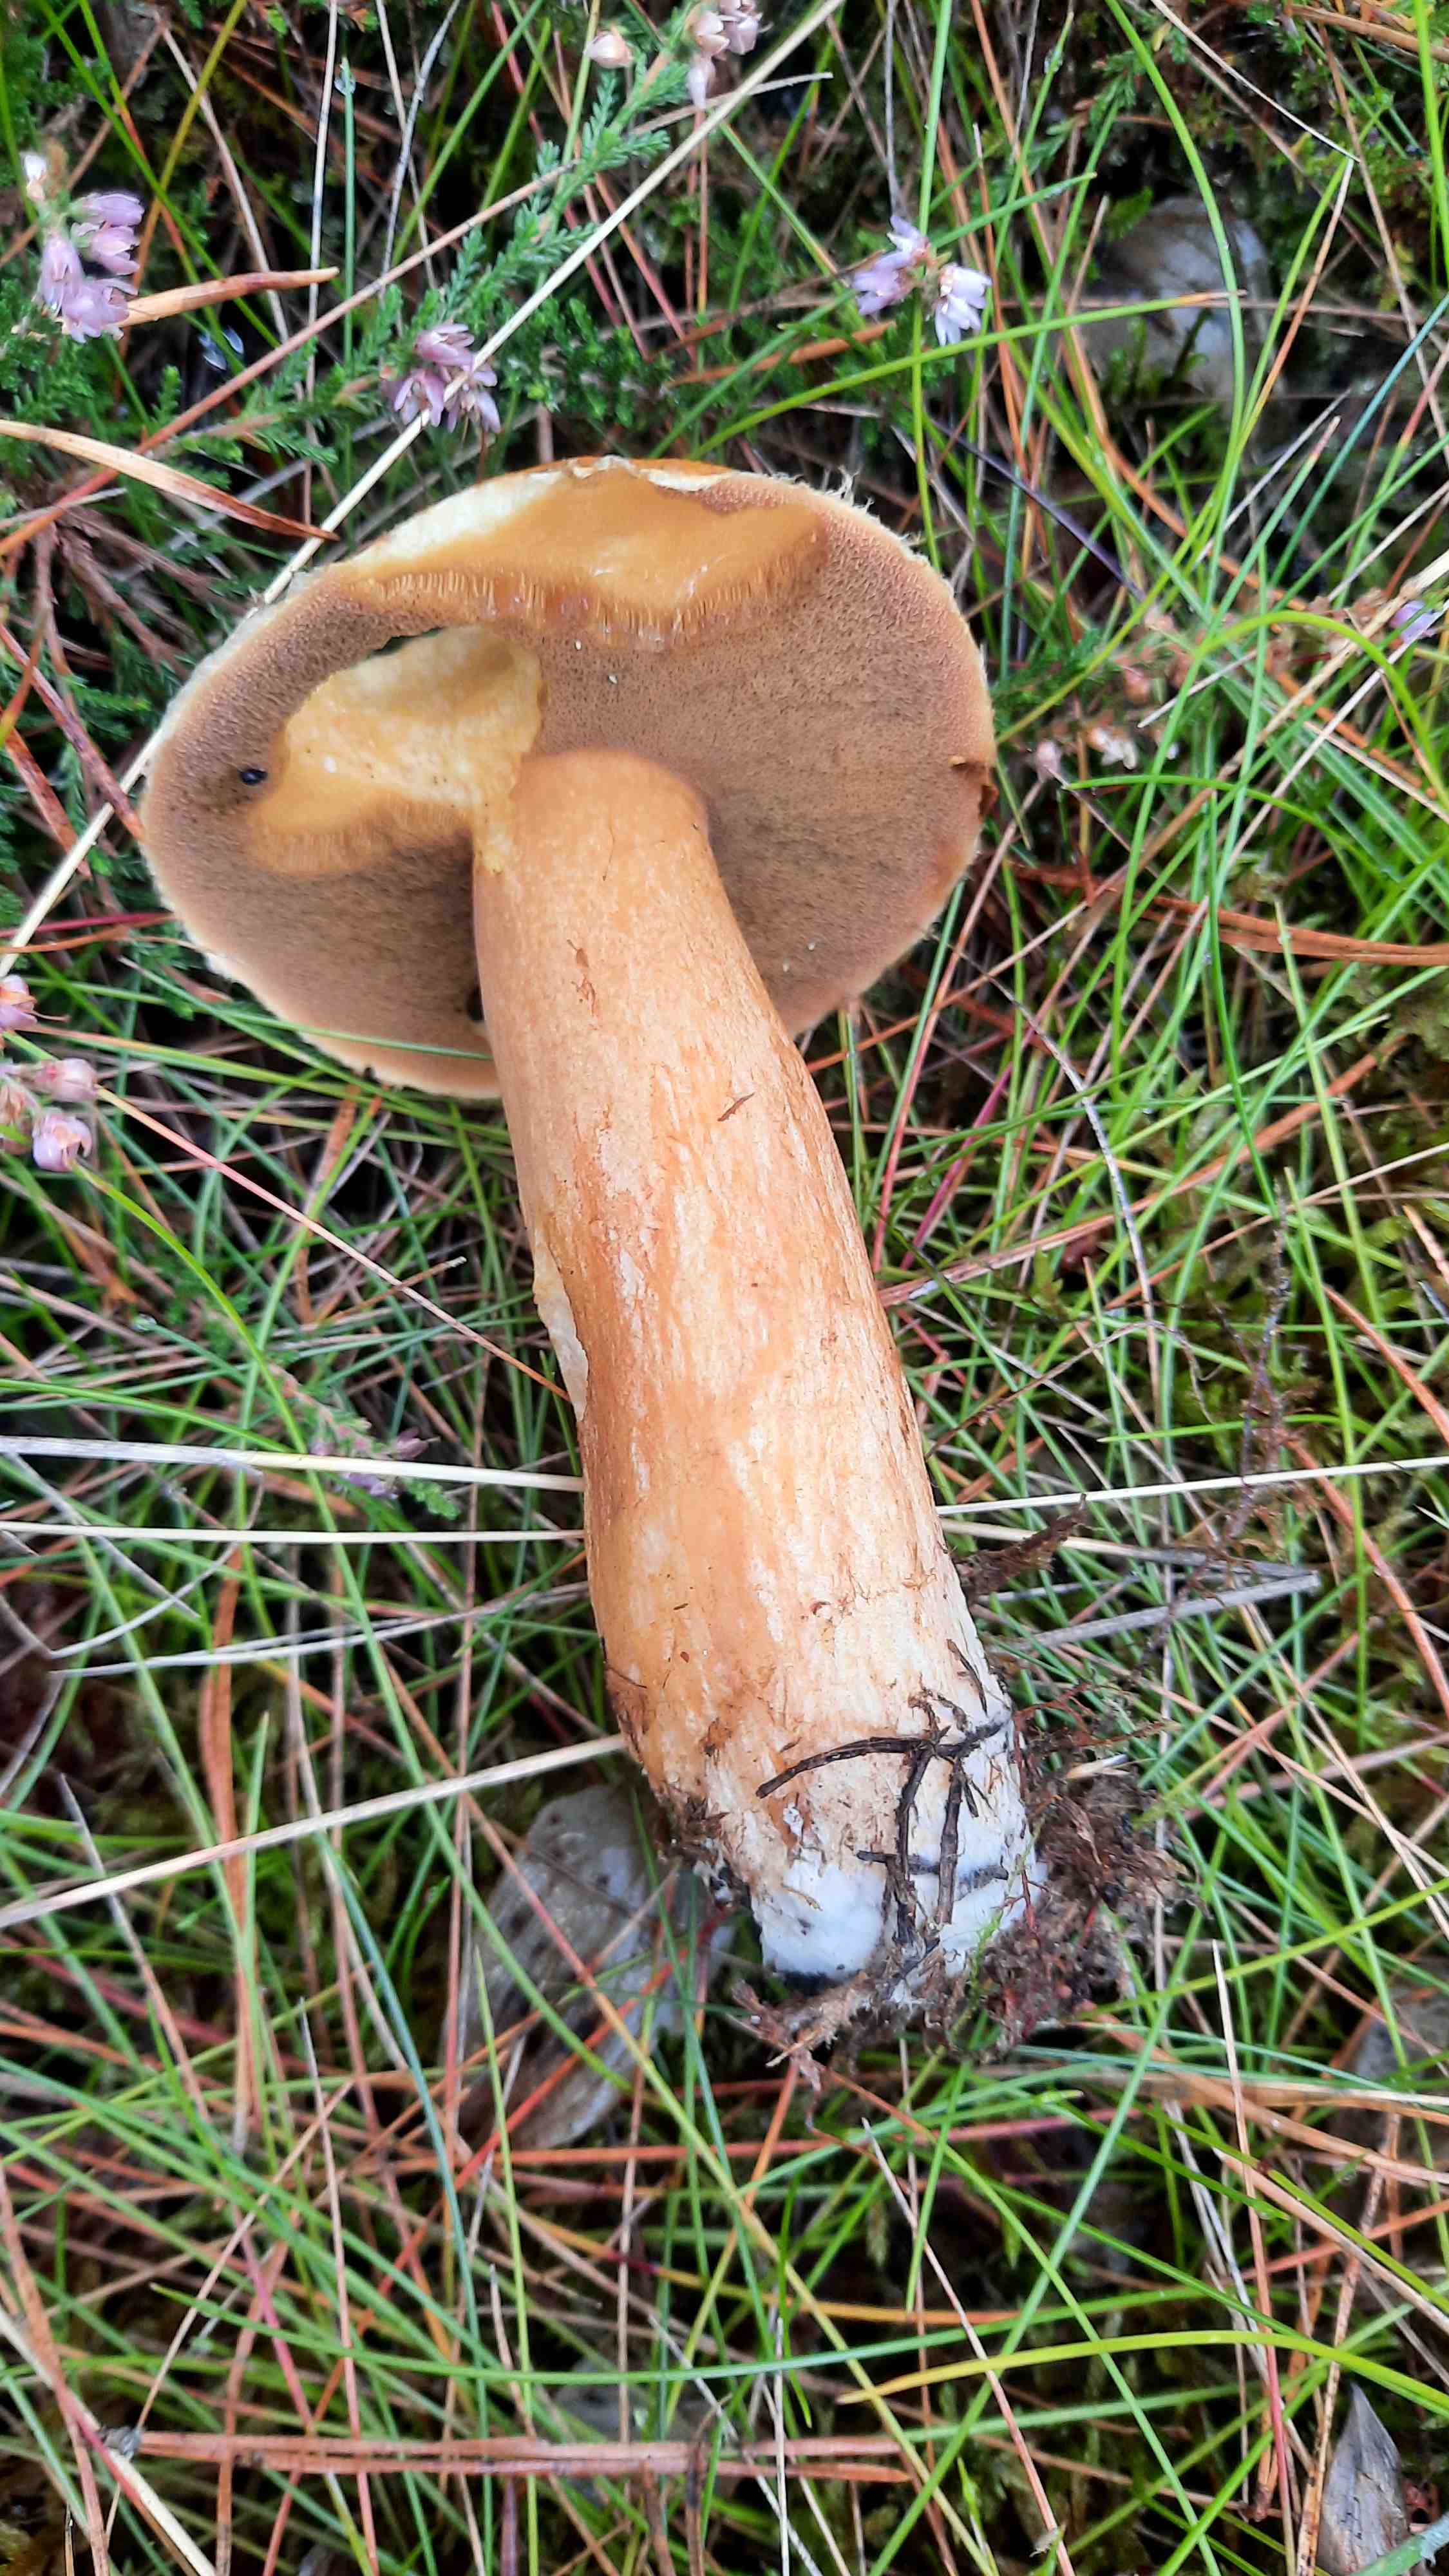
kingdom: Fungi
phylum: Basidiomycota
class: Agaricomycetes
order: Boletales
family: Suillaceae
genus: Suillus
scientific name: Suillus variegatus
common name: broget slimrørhat
